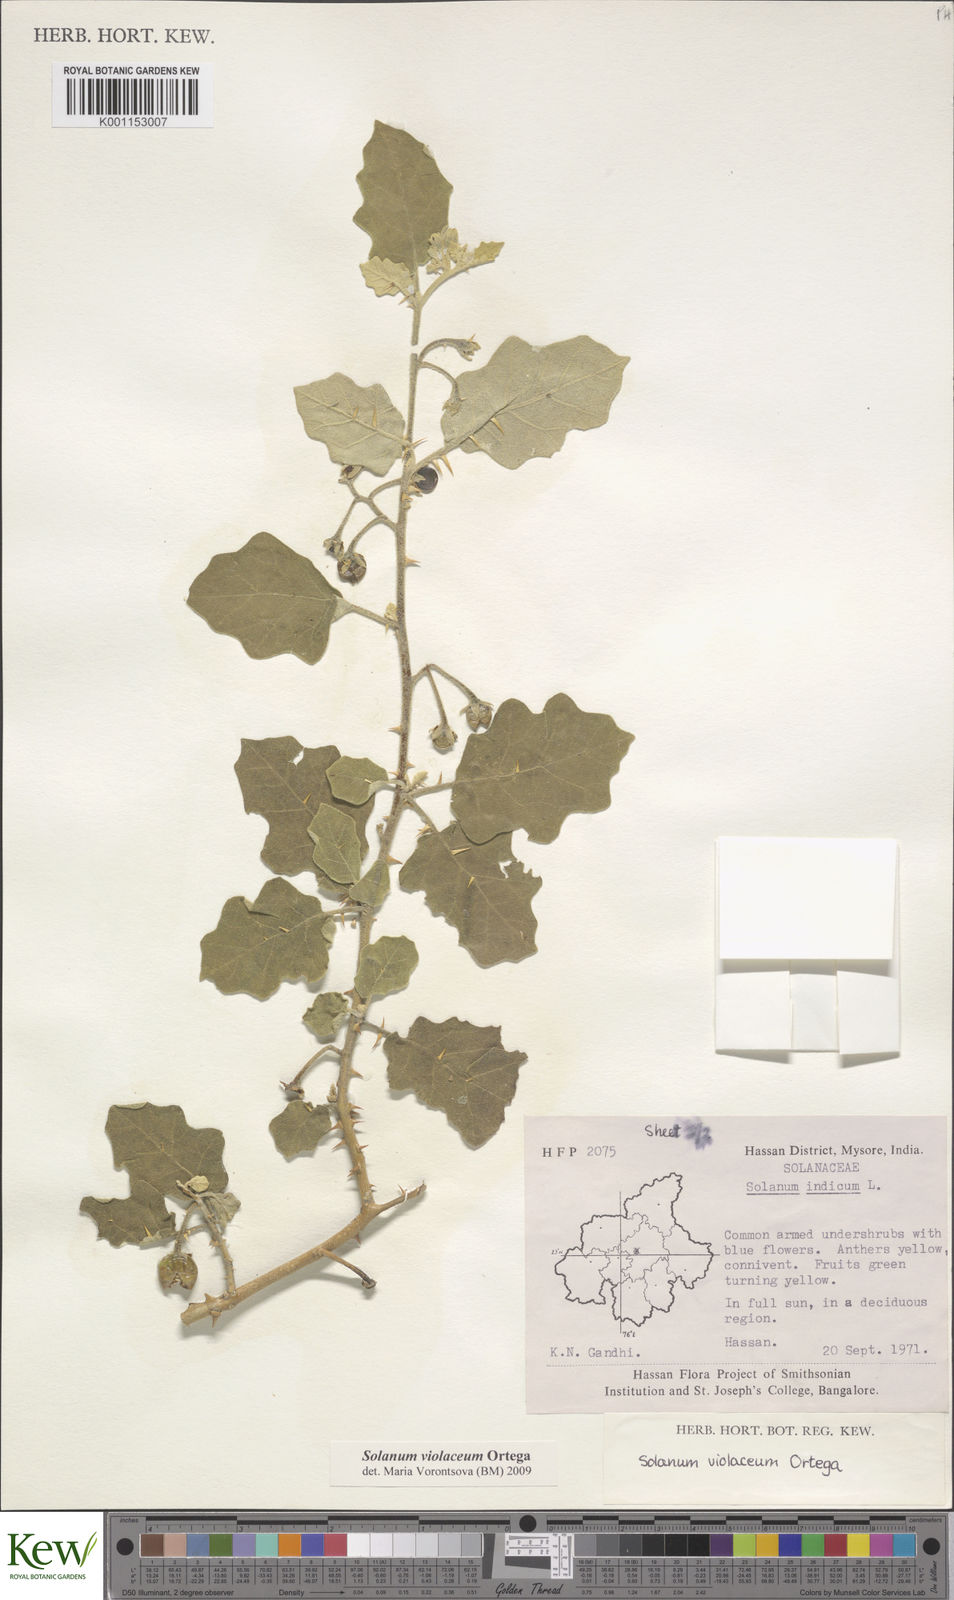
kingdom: Plantae
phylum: Tracheophyta
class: Magnoliopsida
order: Solanales
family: Solanaceae
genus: Solanum
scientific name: Solanum violaceum
